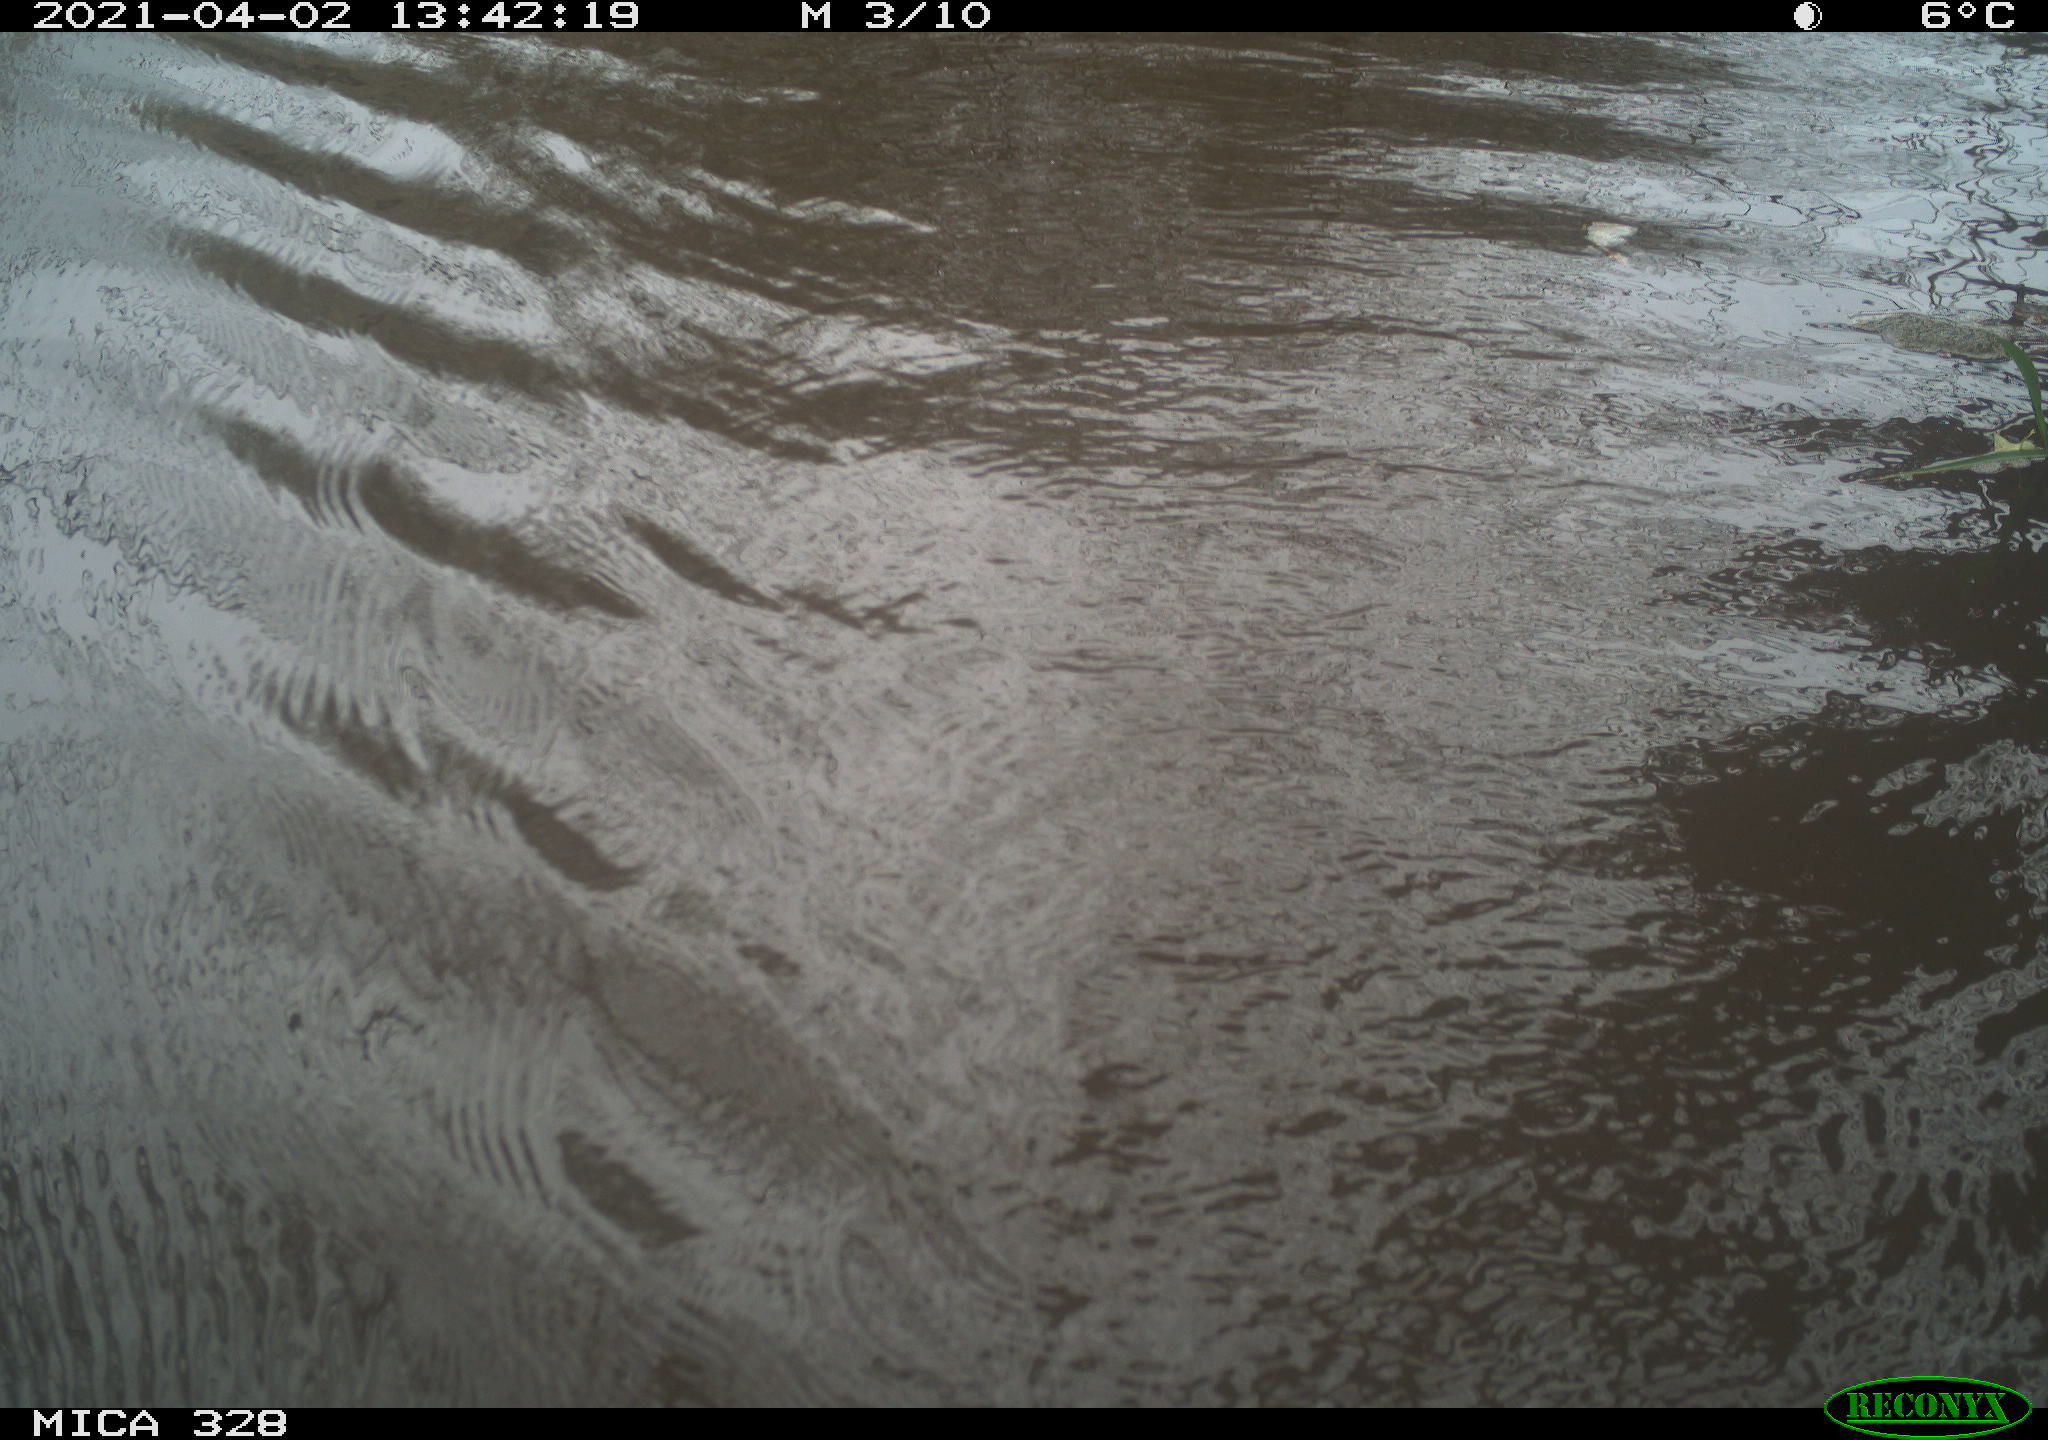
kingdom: Animalia
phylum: Chordata
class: Mammalia
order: Rodentia
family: Cricetidae
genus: Ondatra
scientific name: Ondatra zibethicus
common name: Muskrat
